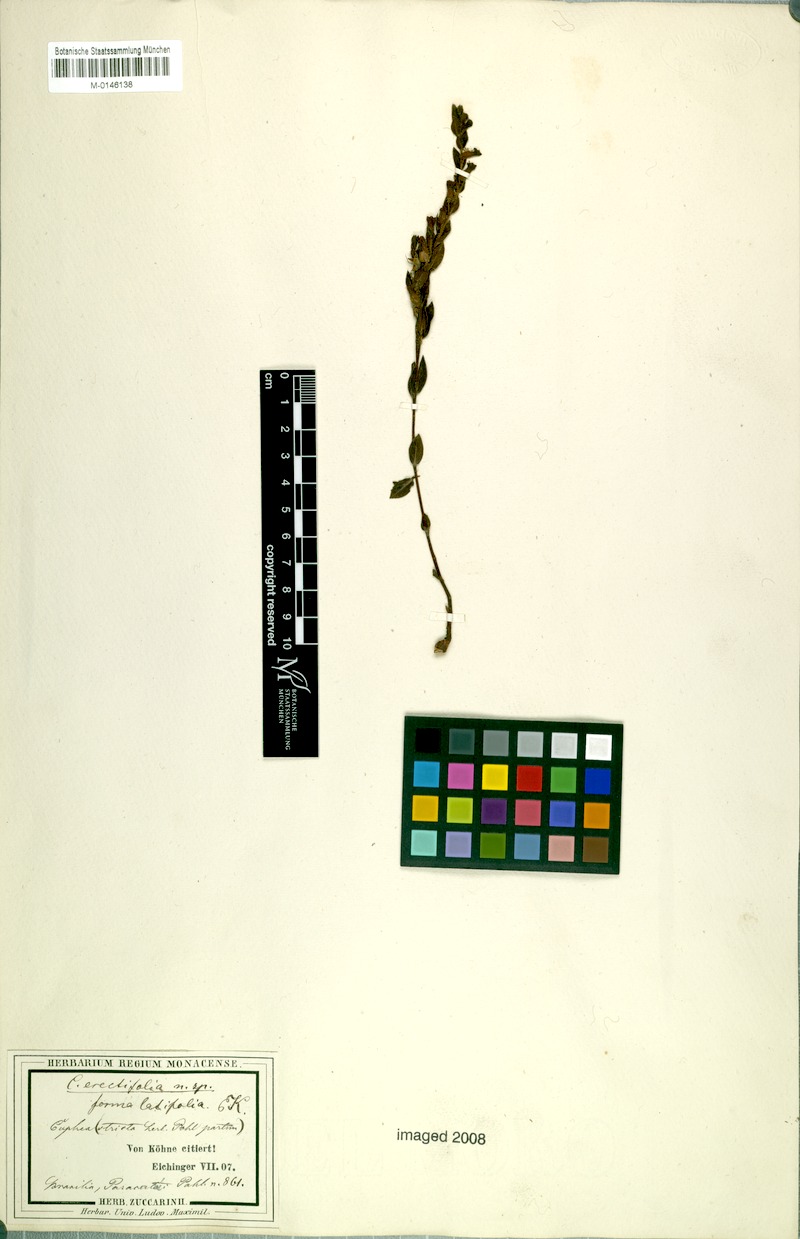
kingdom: Plantae
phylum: Tracheophyta
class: Magnoliopsida
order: Myrtales
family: Lythraceae
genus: Cuphea
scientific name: Cuphea spermacoce
